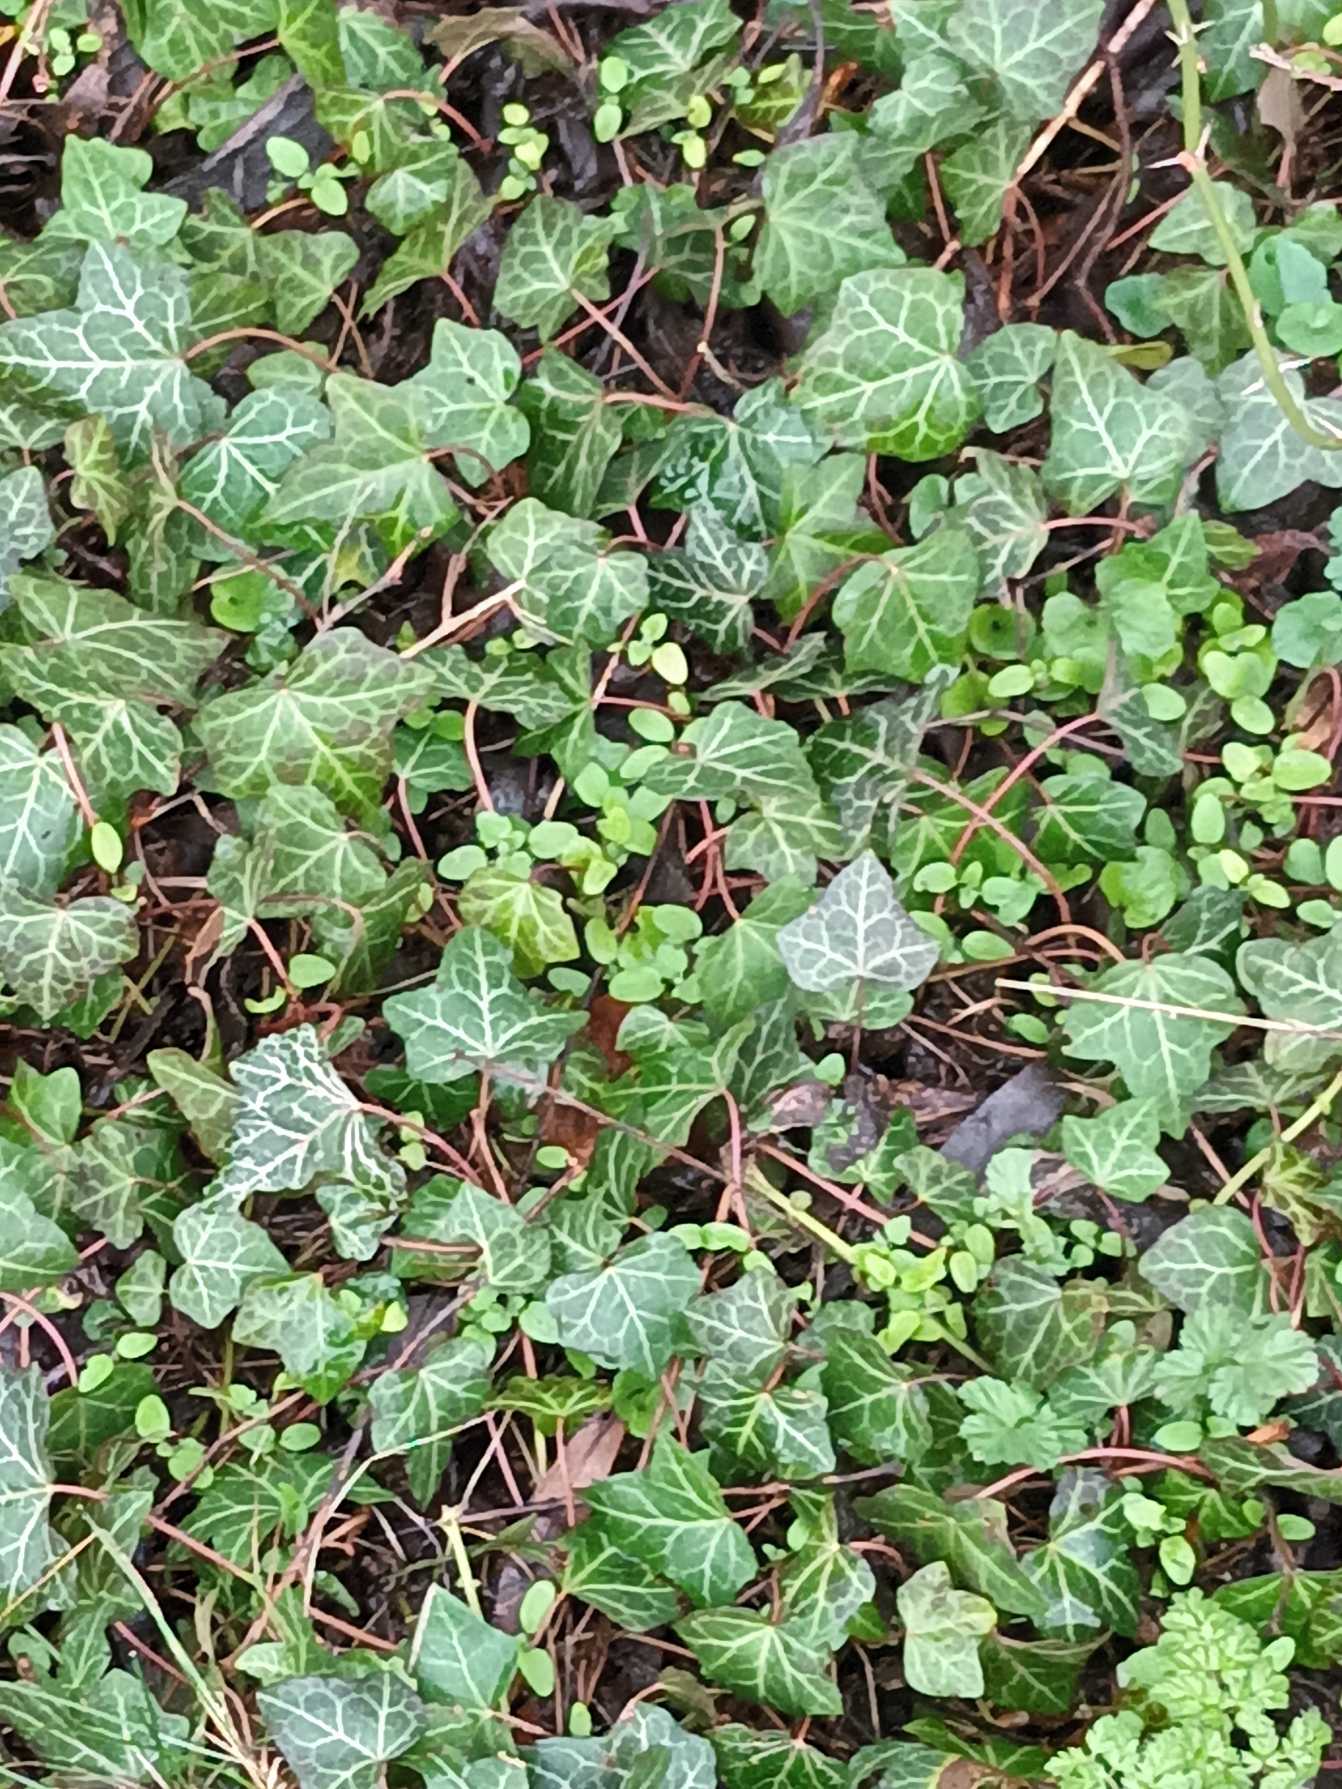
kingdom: Plantae
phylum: Tracheophyta
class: Magnoliopsida
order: Apiales
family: Araliaceae
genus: Hedera
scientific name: Hedera helix
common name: Vedbend
